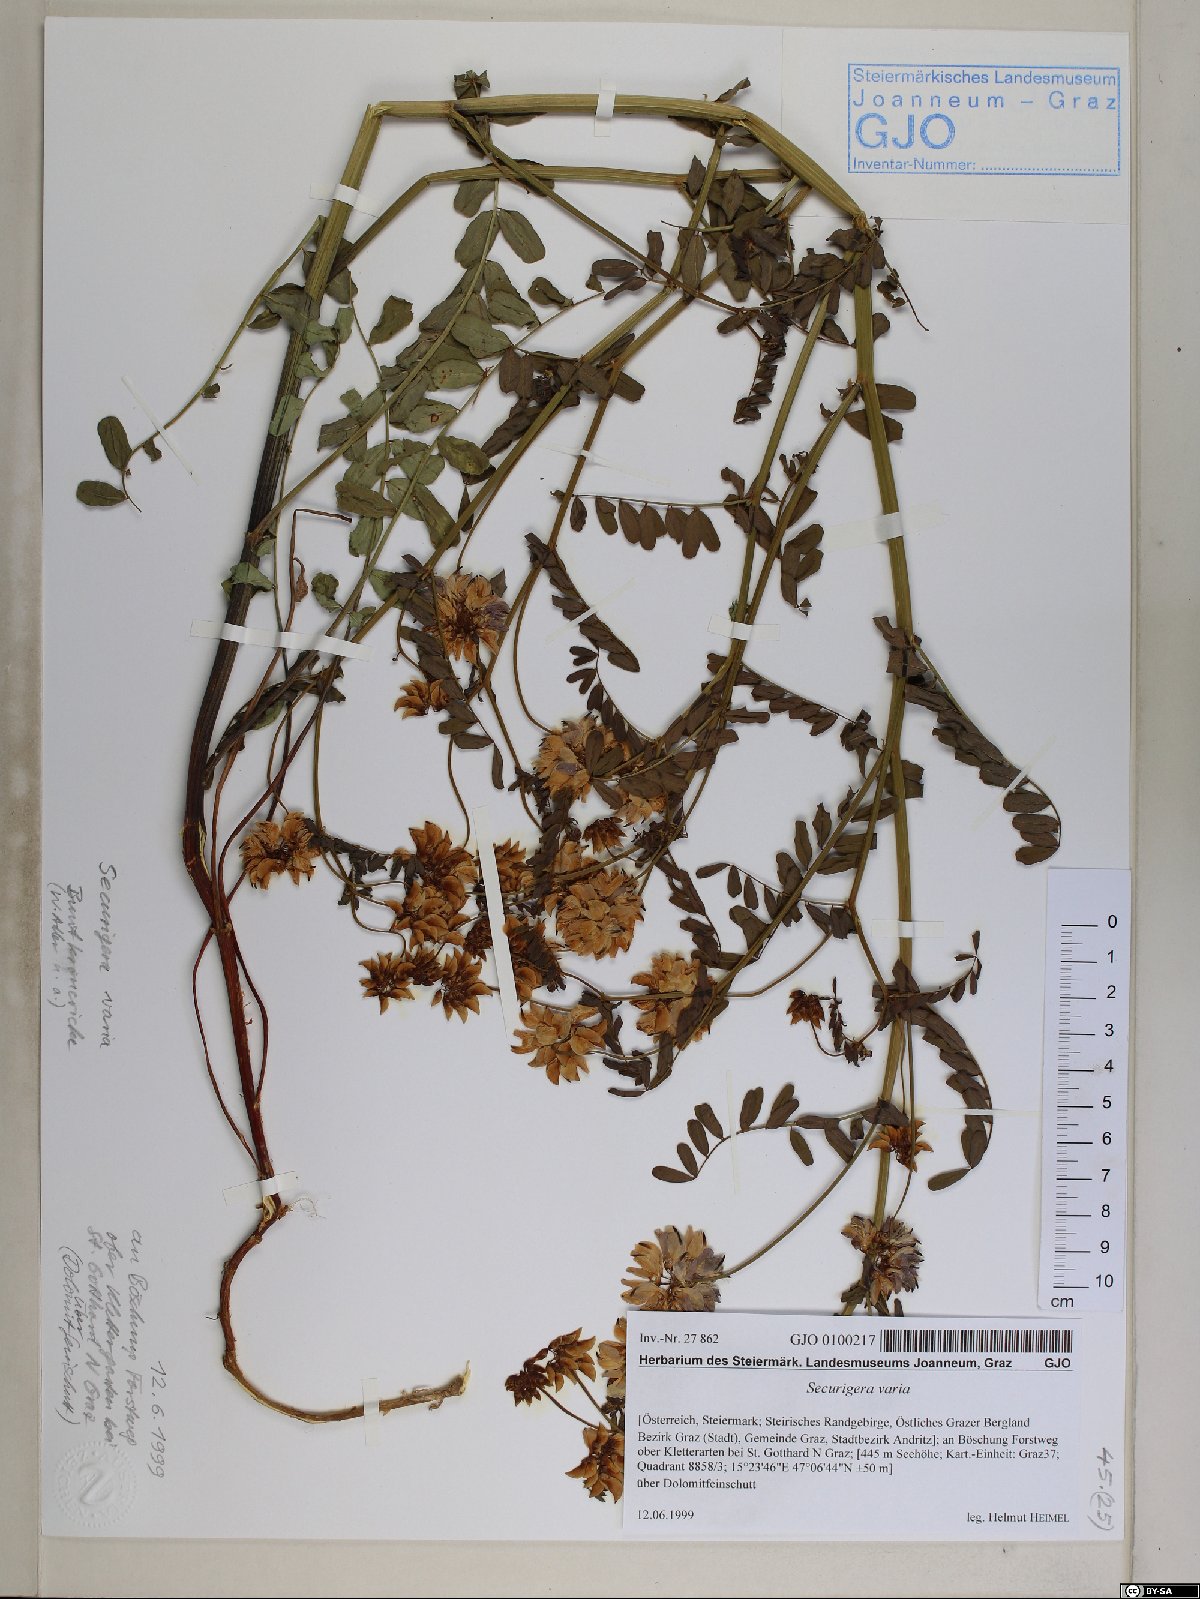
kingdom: Plantae
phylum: Tracheophyta
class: Magnoliopsida
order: Fabales
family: Fabaceae
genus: Coronilla
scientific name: Coronilla varia
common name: Crownvetch
